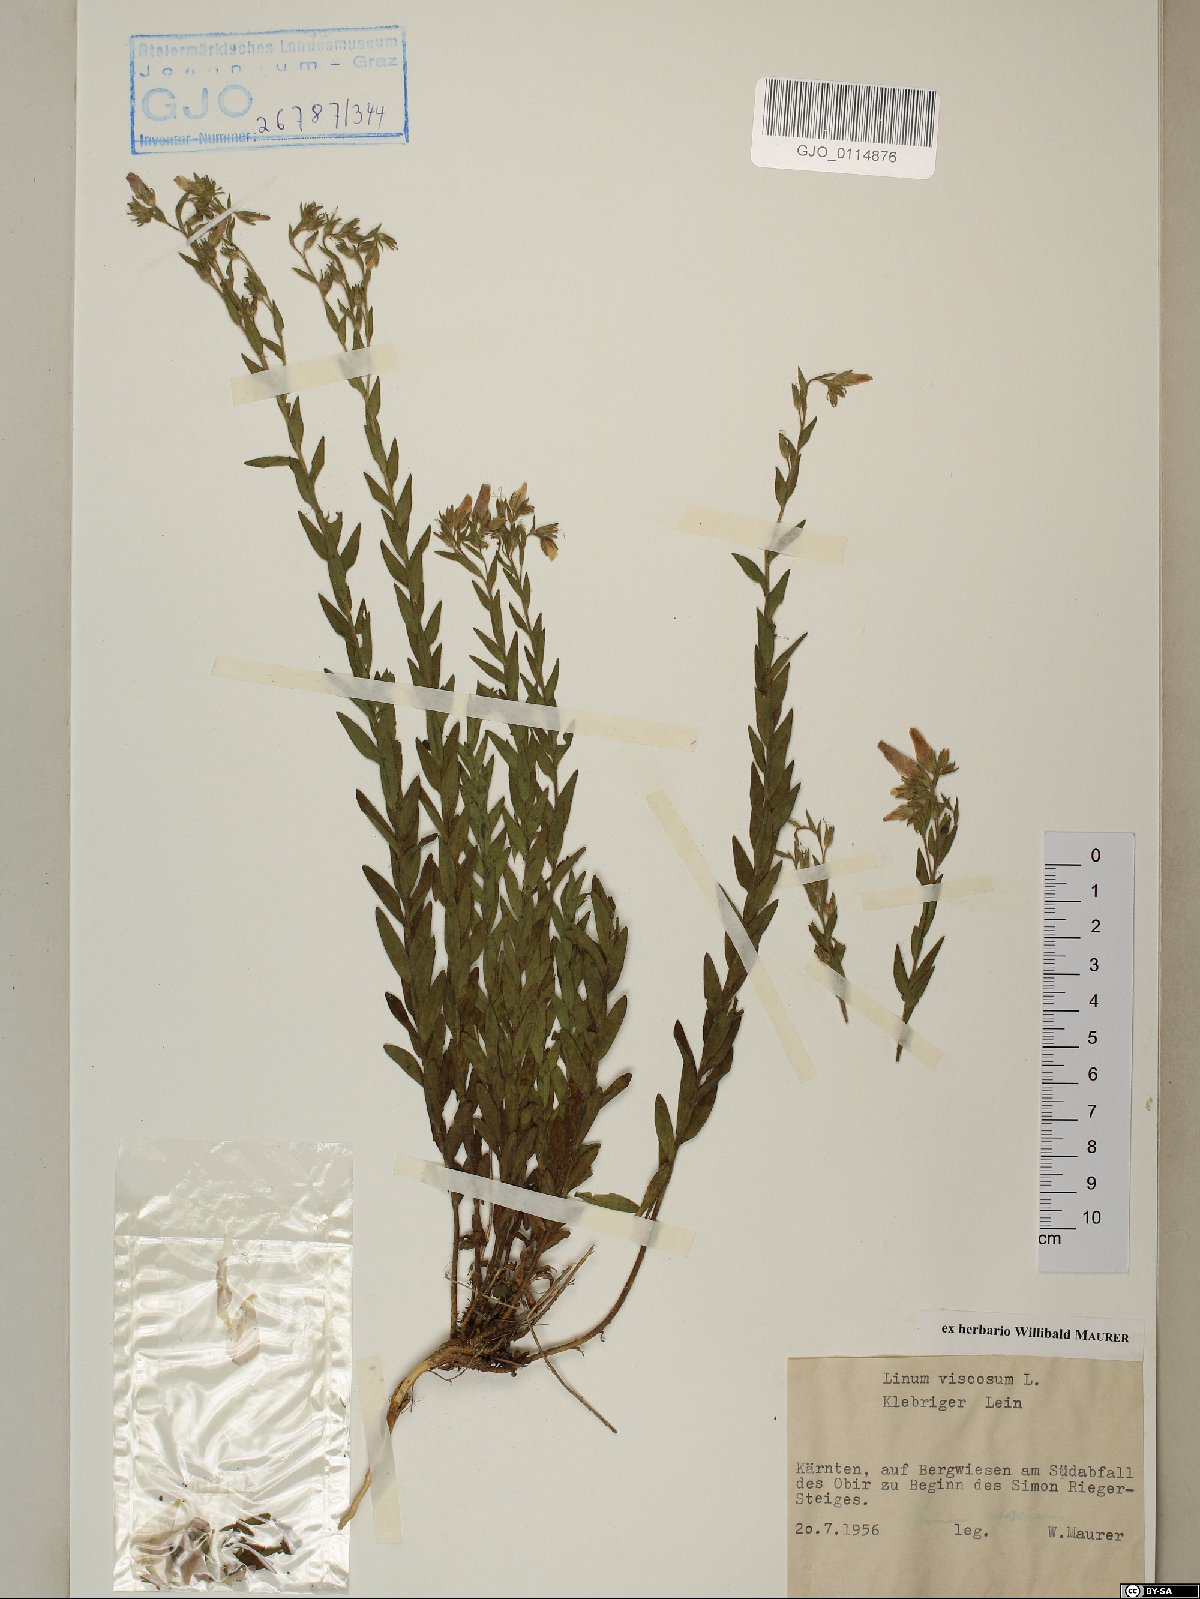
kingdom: Plantae
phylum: Tracheophyta
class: Magnoliopsida
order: Malpighiales
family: Linaceae
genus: Linum
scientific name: Linum viscosum
